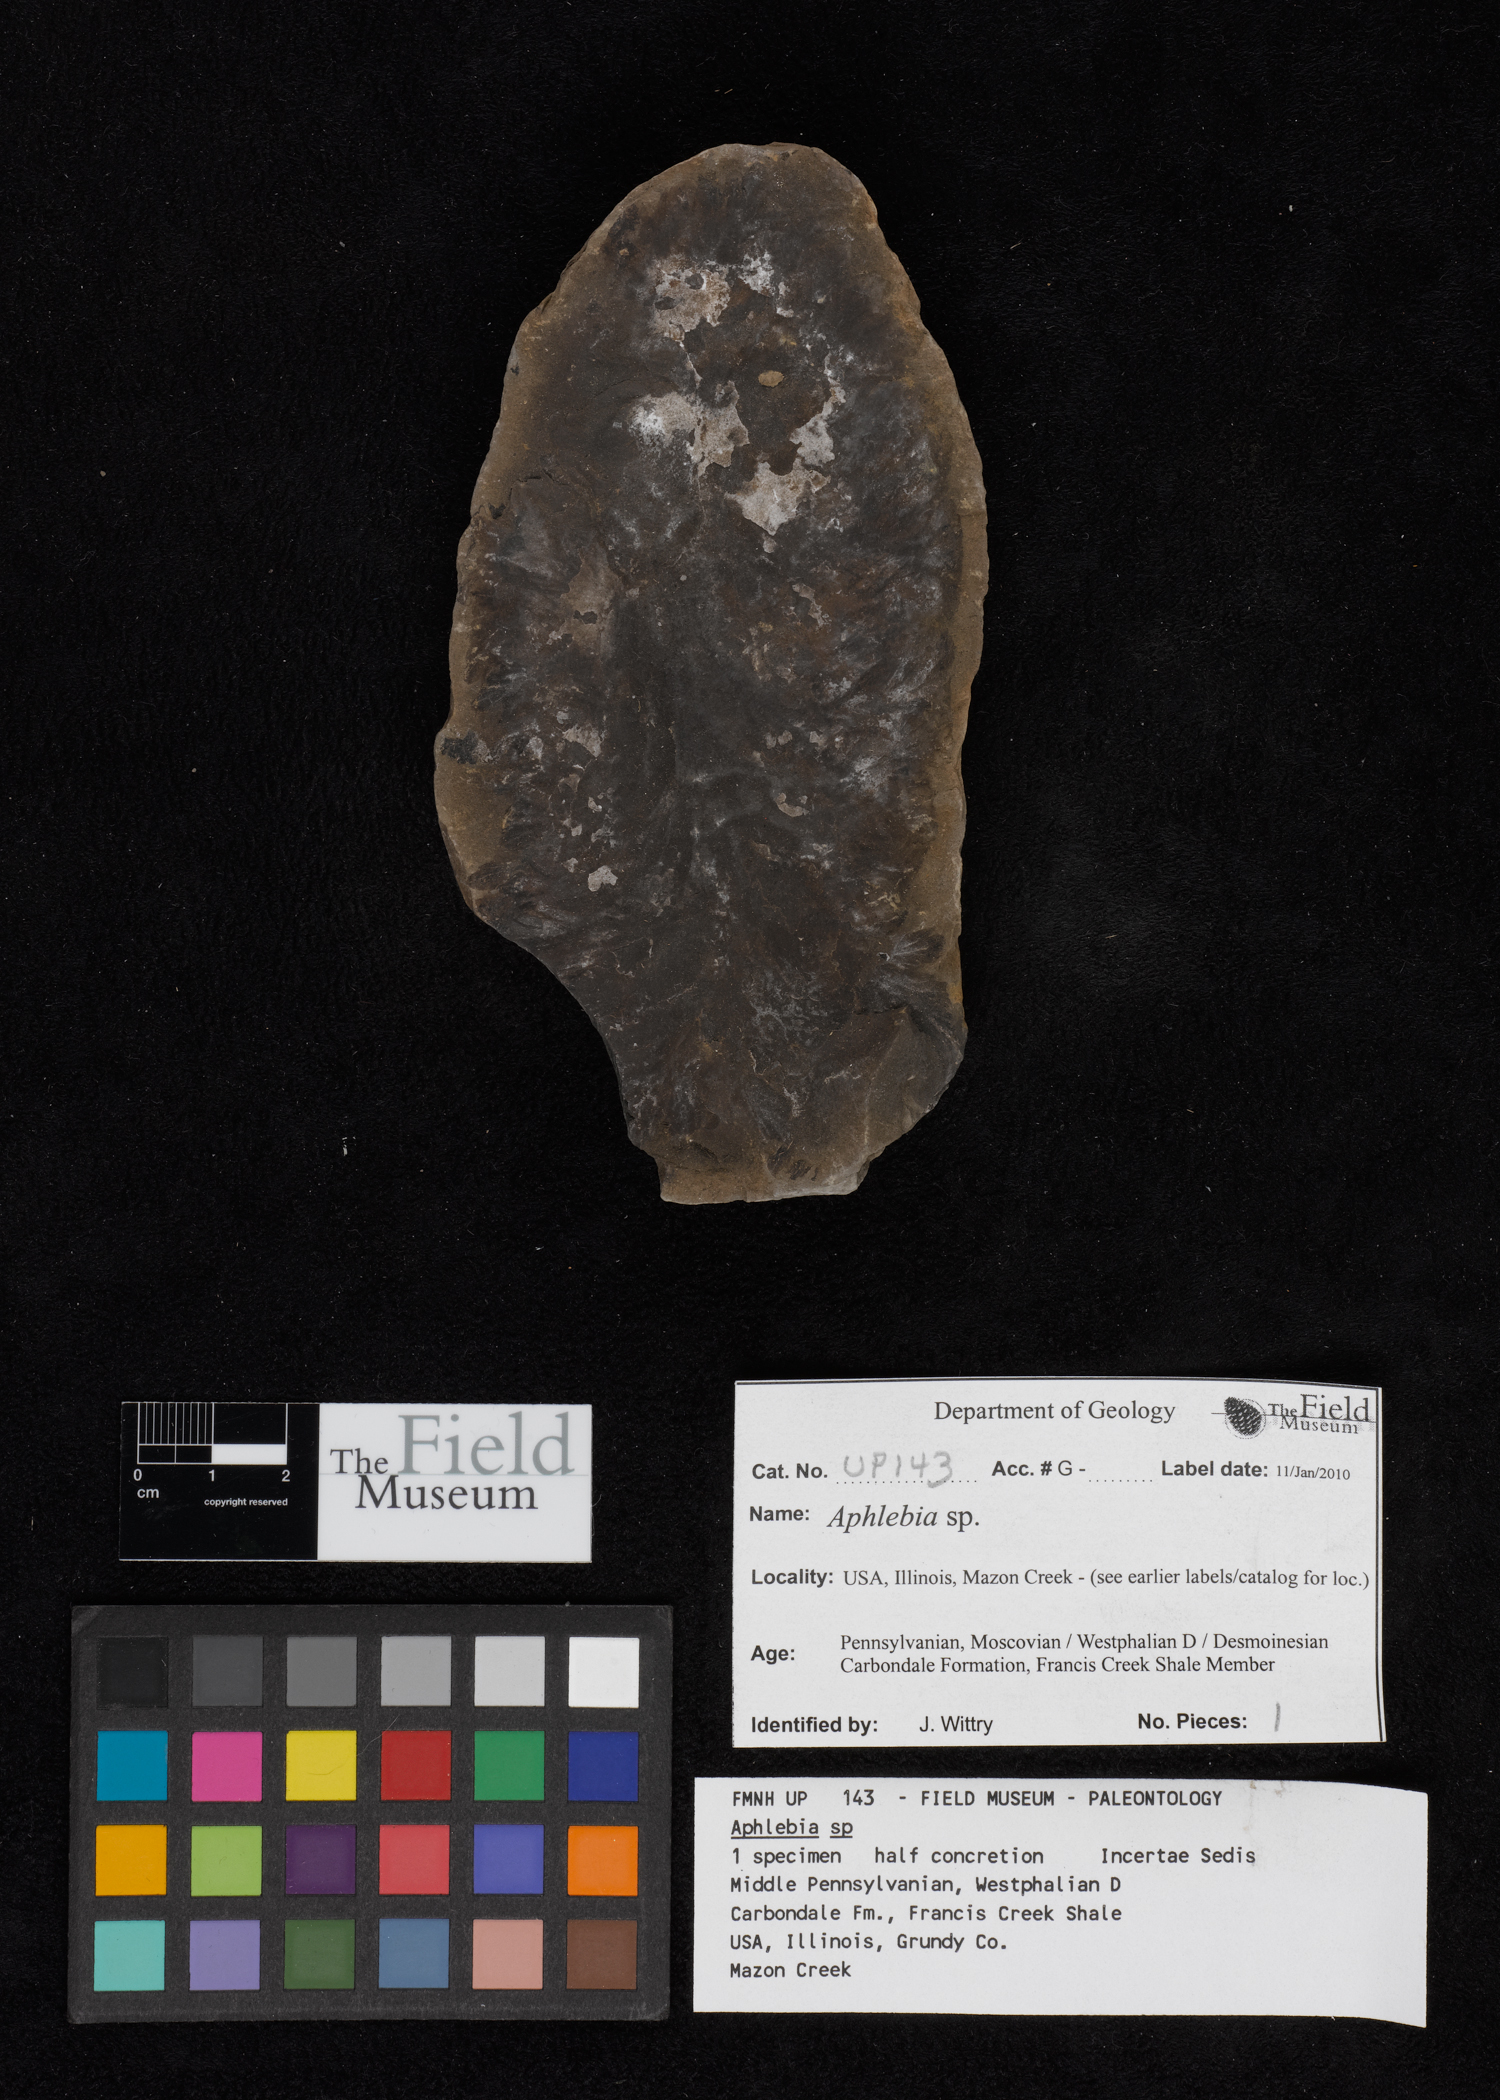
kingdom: Plantae
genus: Rhacophyllum
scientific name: Rhacophyllum
